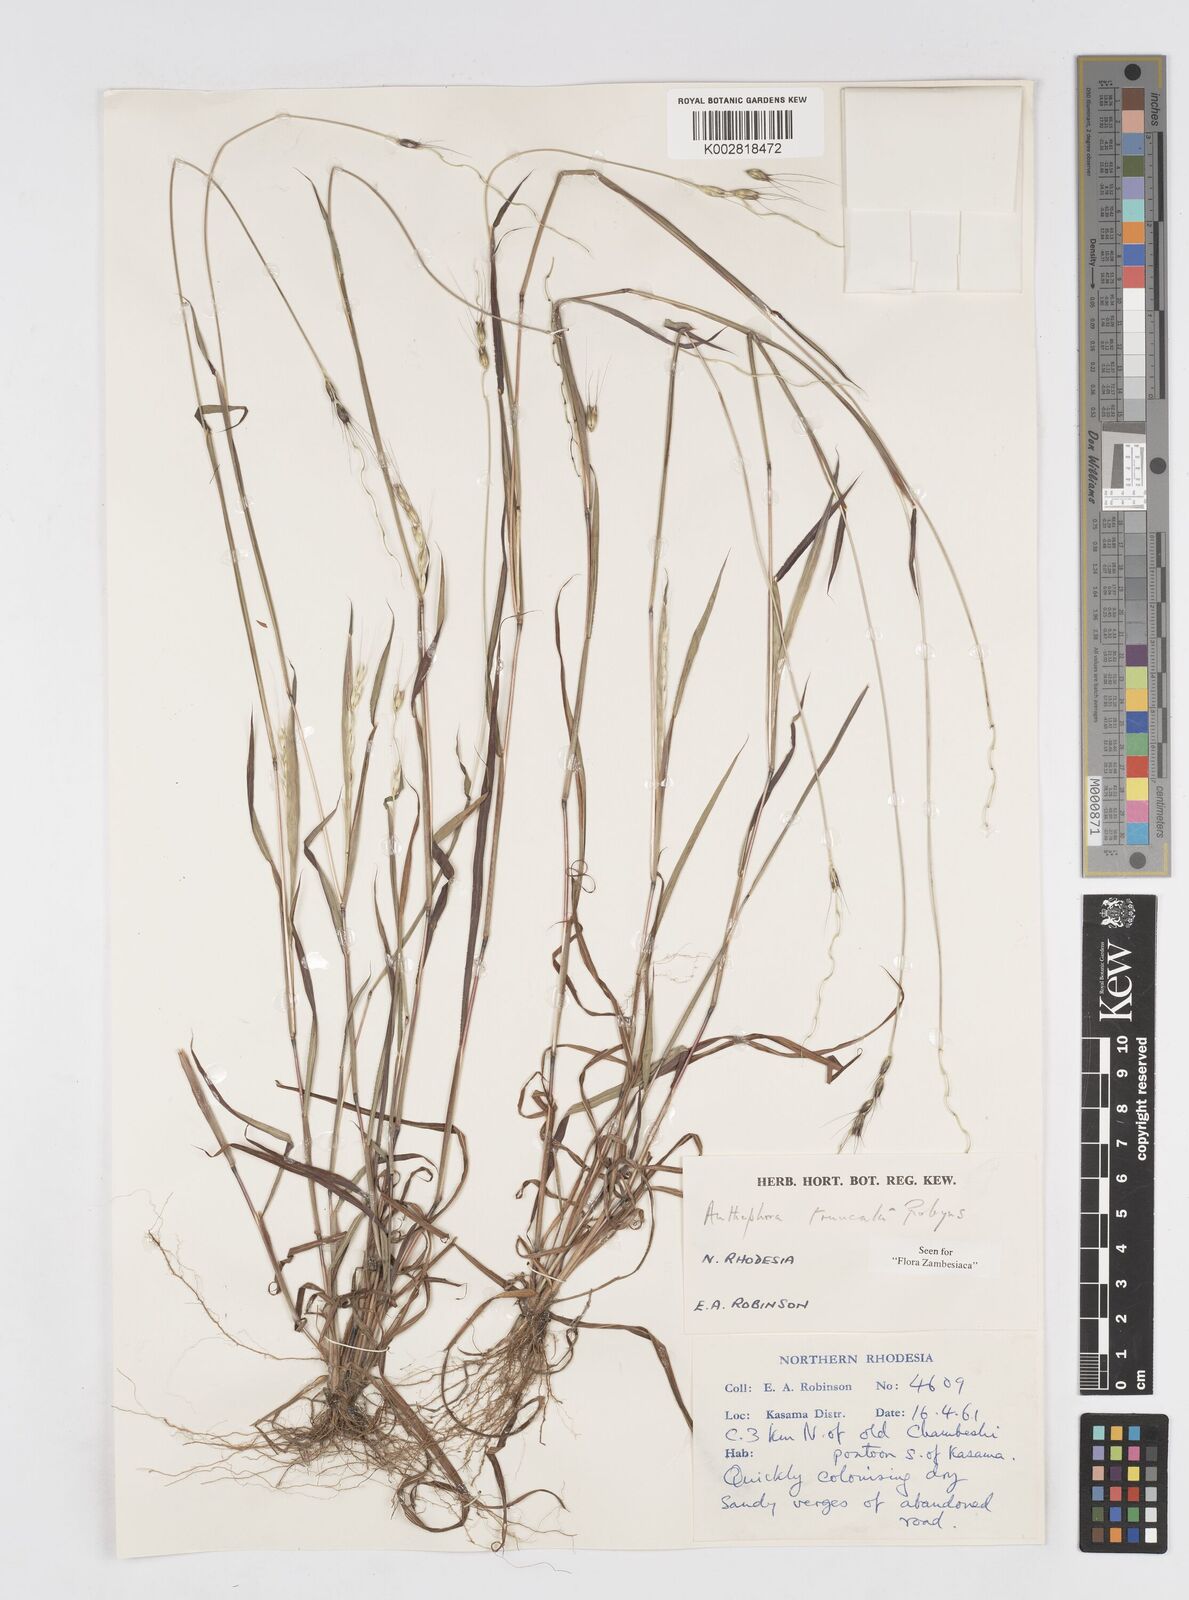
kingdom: Plantae
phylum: Tracheophyta
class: Liliopsida
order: Poales
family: Poaceae
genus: Anthephora
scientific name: Anthephora truncata
